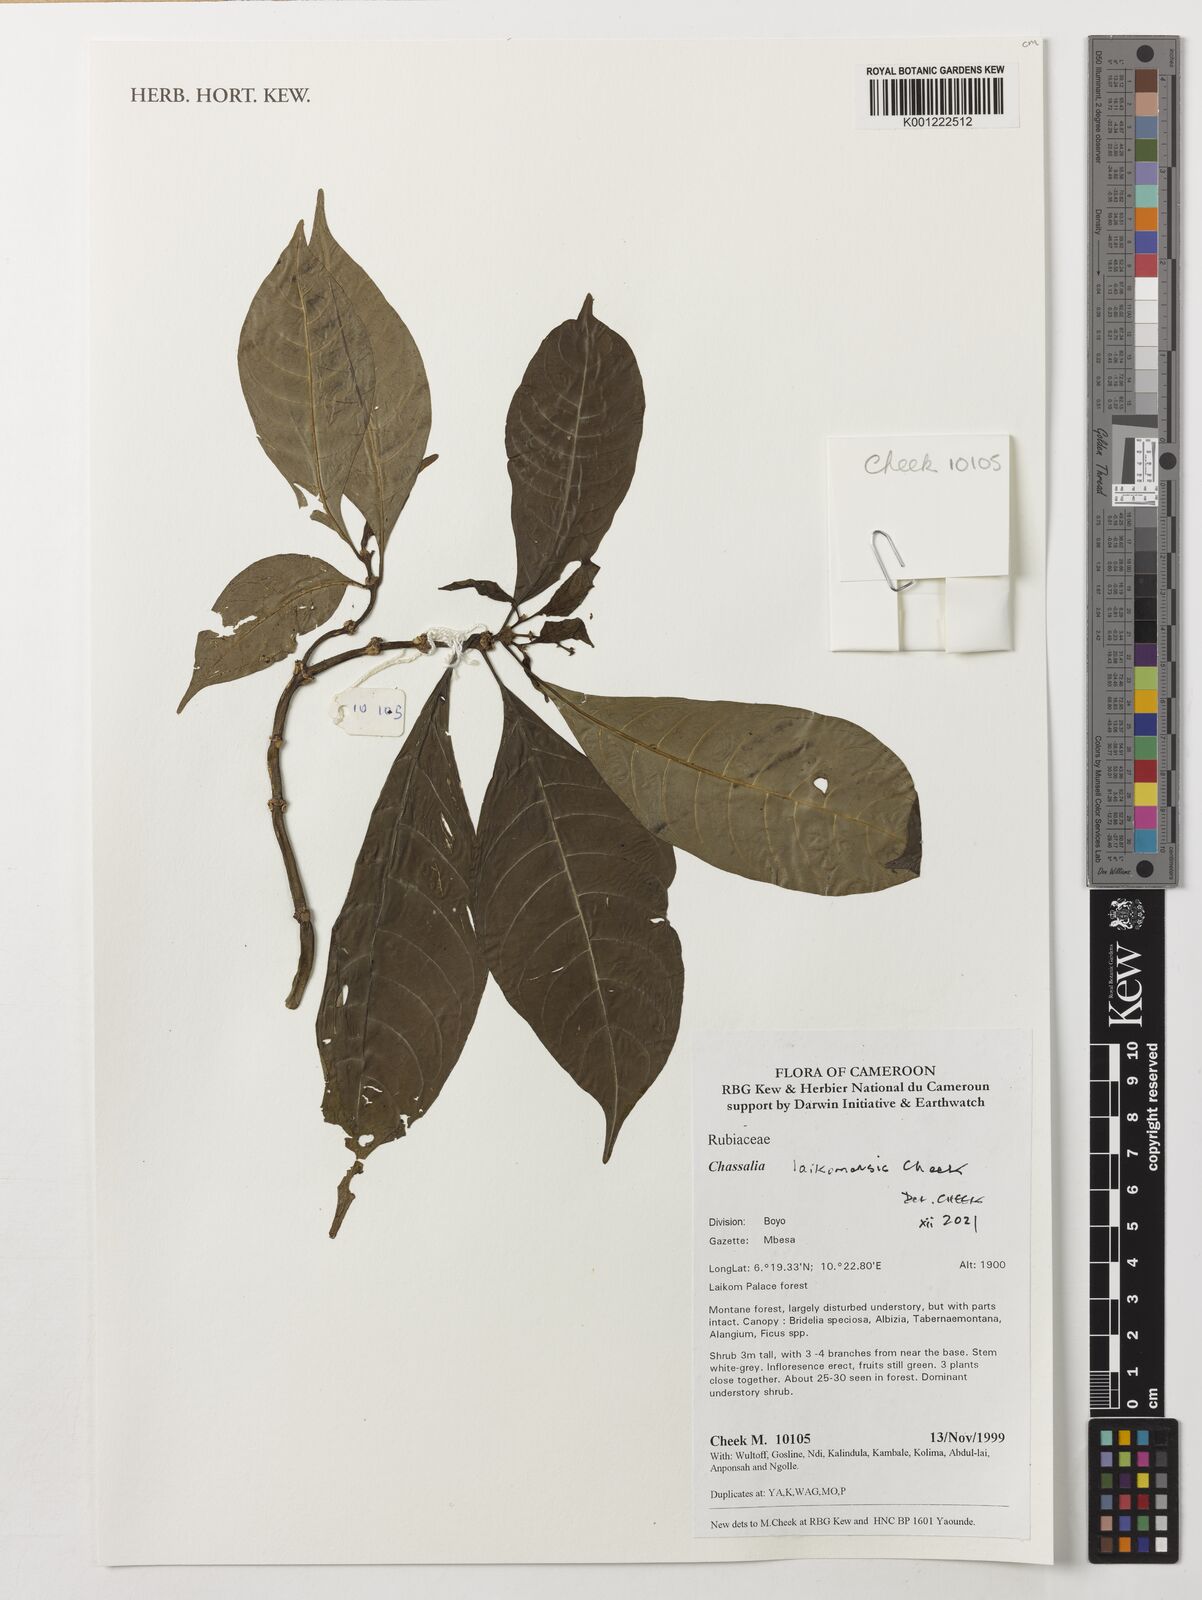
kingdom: Plantae
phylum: Tracheophyta
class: Magnoliopsida
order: Gentianales
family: Rubiaceae
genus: Chassalia
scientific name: Chassalia laikomensis
